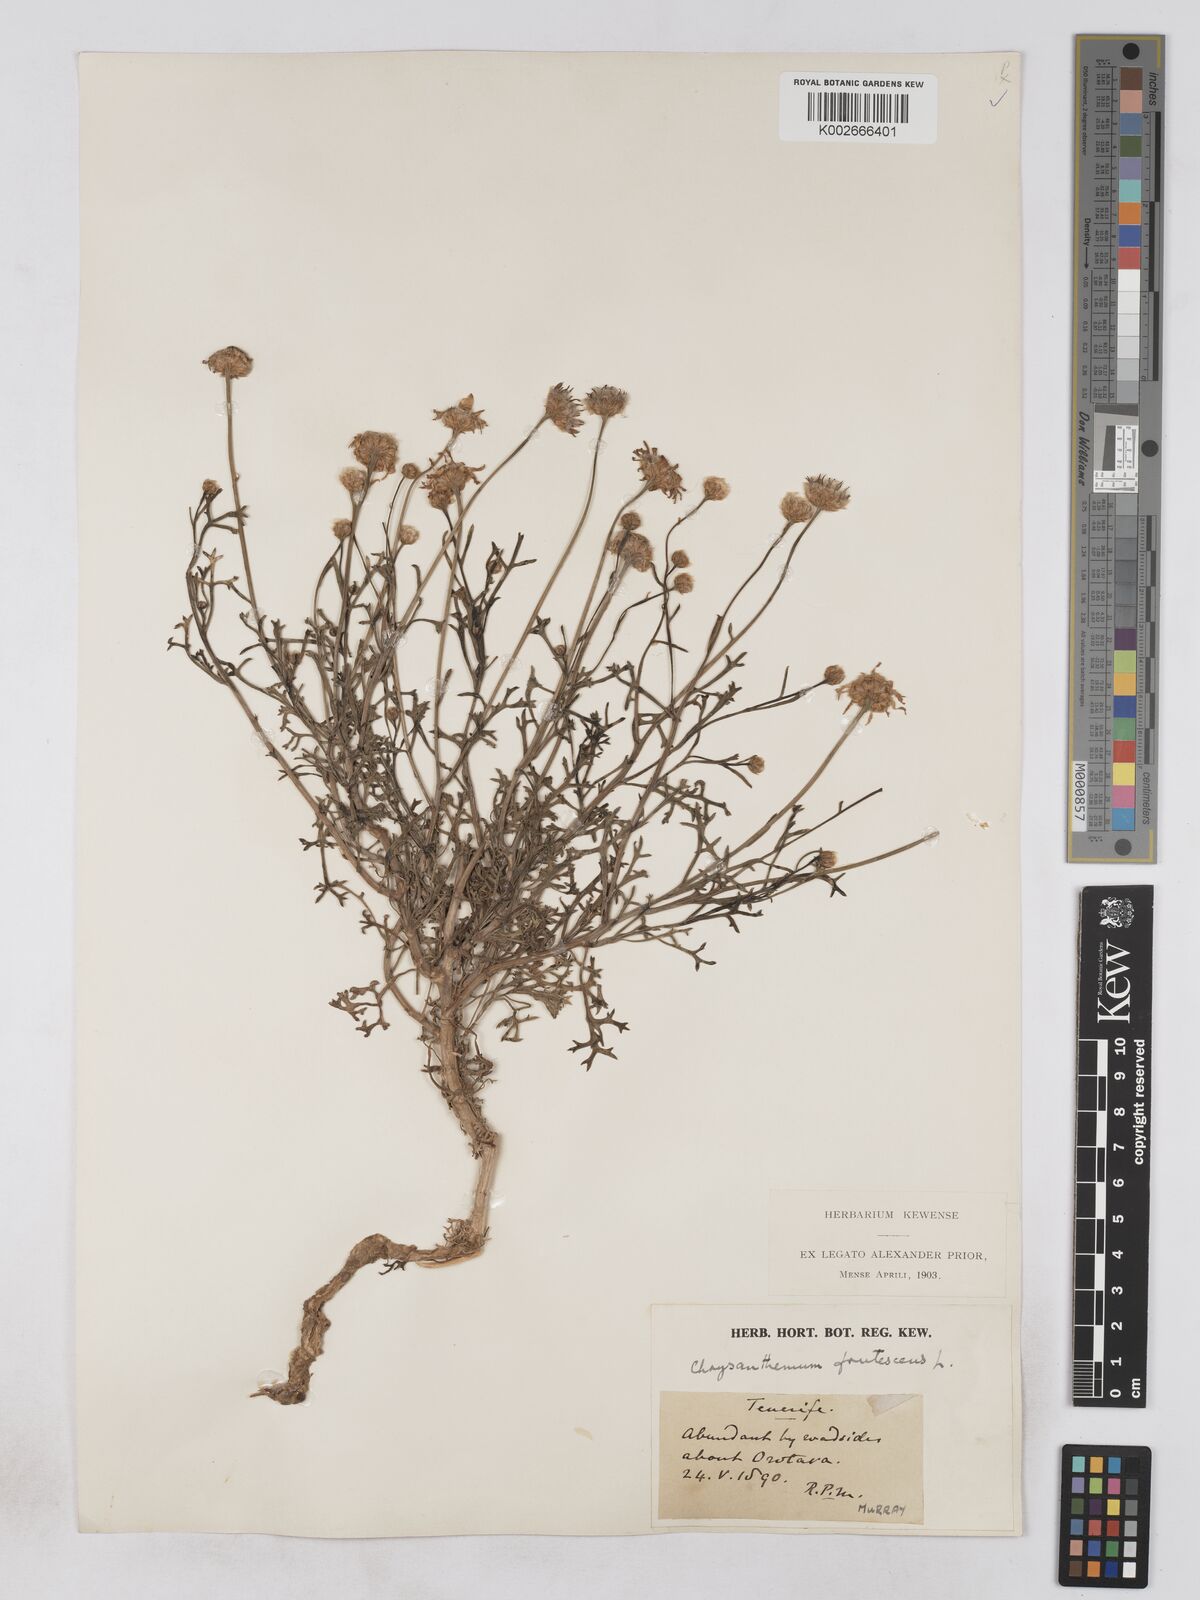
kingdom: Plantae
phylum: Tracheophyta
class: Magnoliopsida
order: Asterales
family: Asteraceae
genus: Argyranthemum
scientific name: Argyranthemum frutescens
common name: Paris daisy
